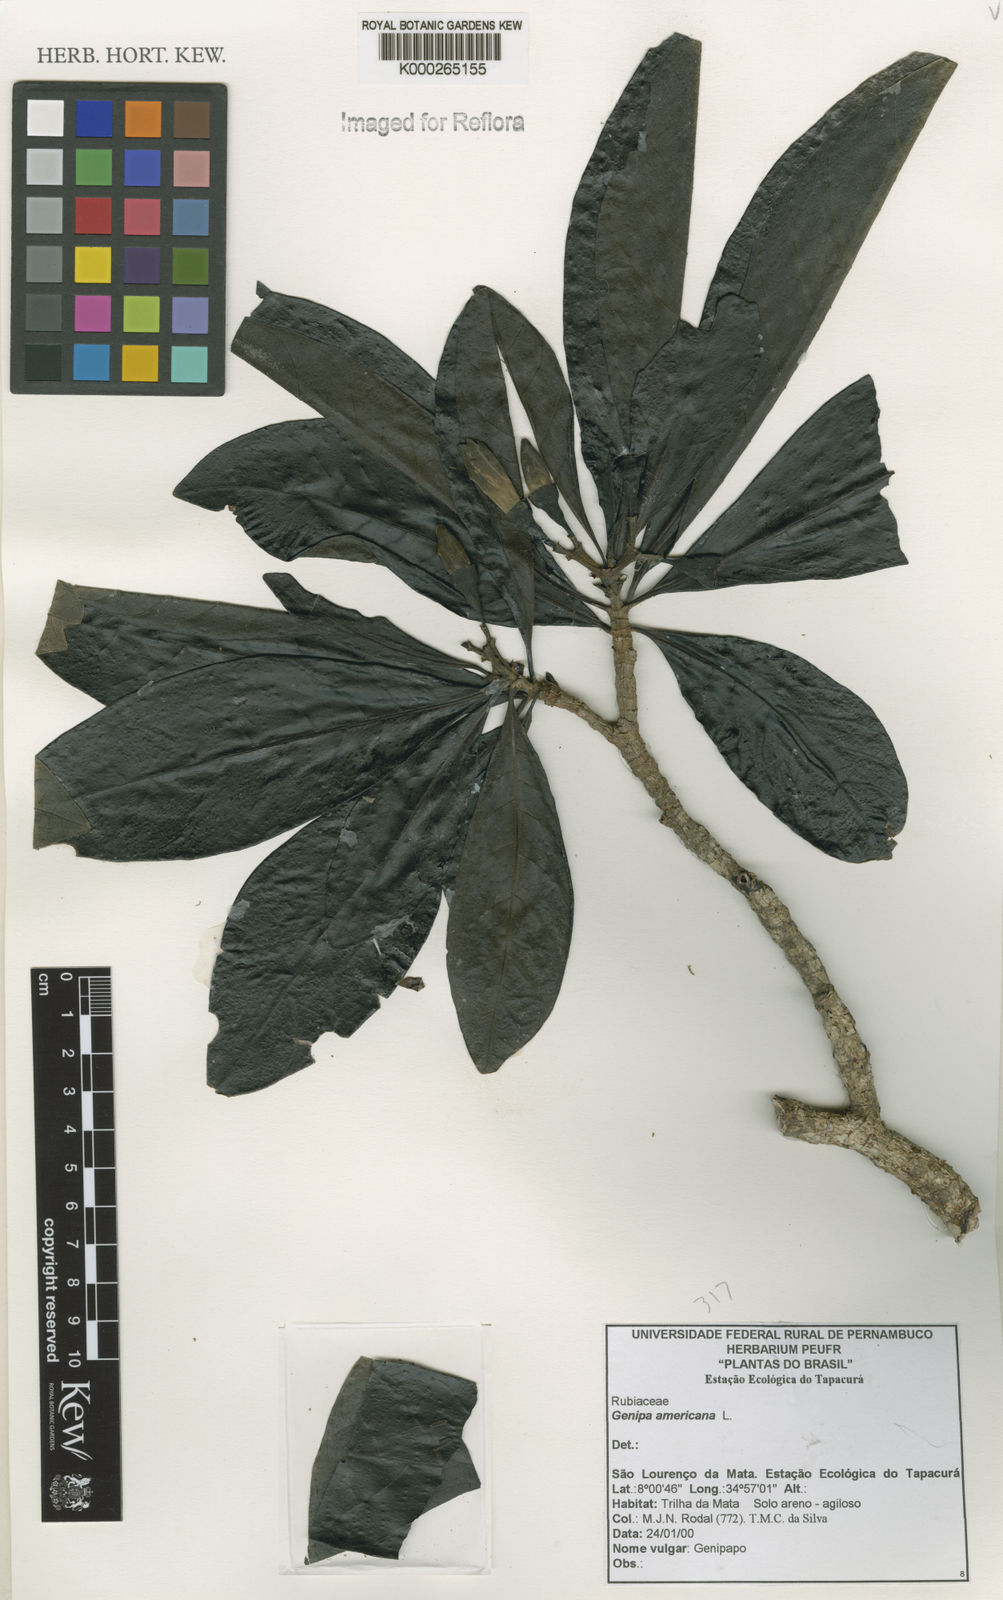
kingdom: Plantae
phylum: Tracheophyta
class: Magnoliopsida
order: Gentianales
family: Rubiaceae
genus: Genipa
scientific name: Genipa americana
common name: Genipap
